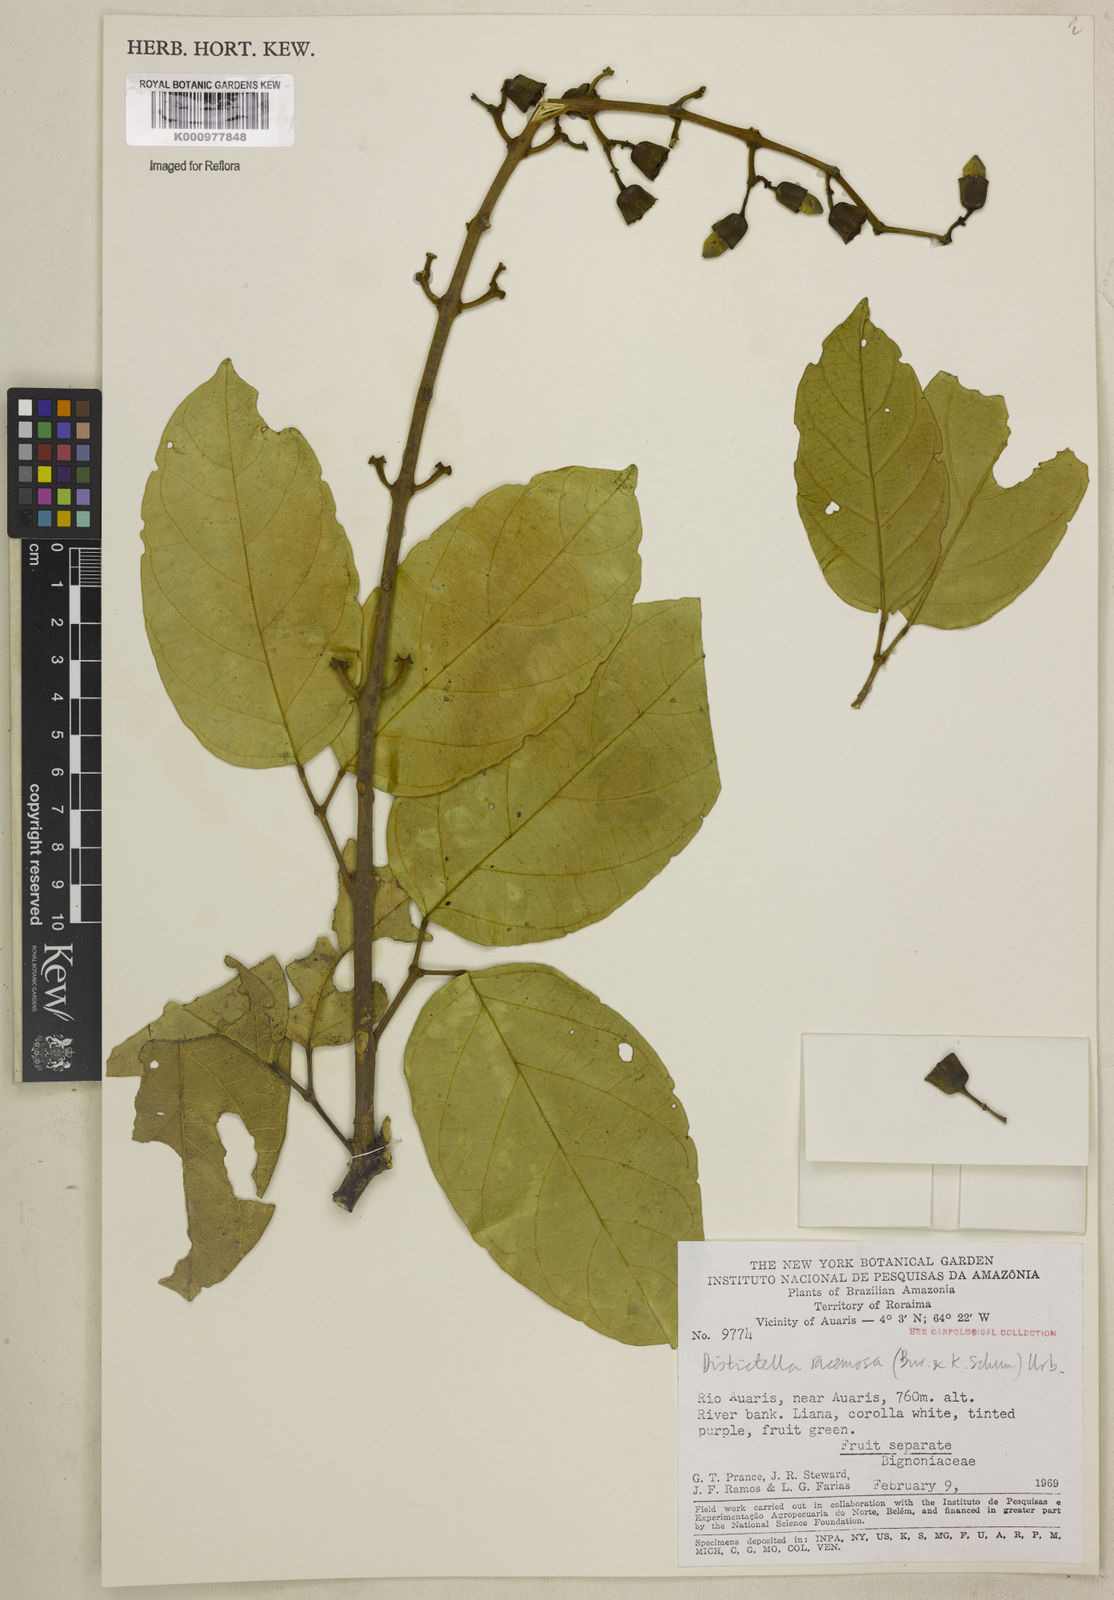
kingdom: Plantae
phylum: Tracheophyta
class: Magnoliopsida
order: Lamiales
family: Bignoniaceae
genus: Amphilophium
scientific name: Amphilophium racemosum
